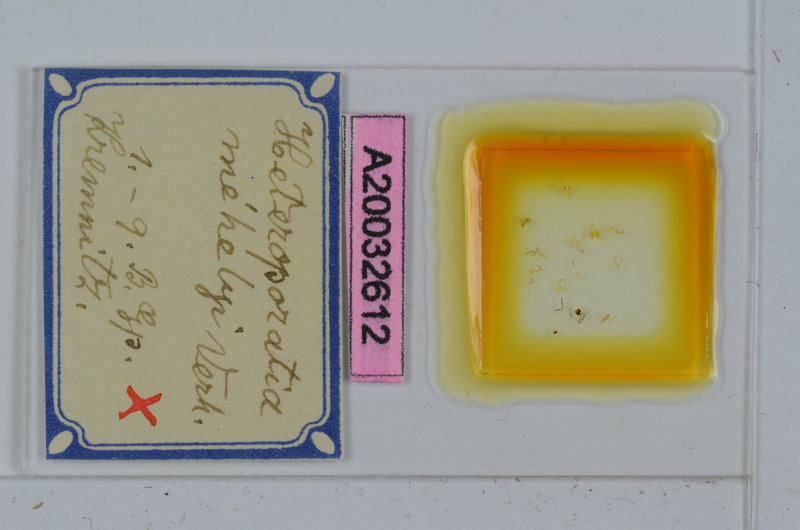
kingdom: Animalia
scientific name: Animalia
